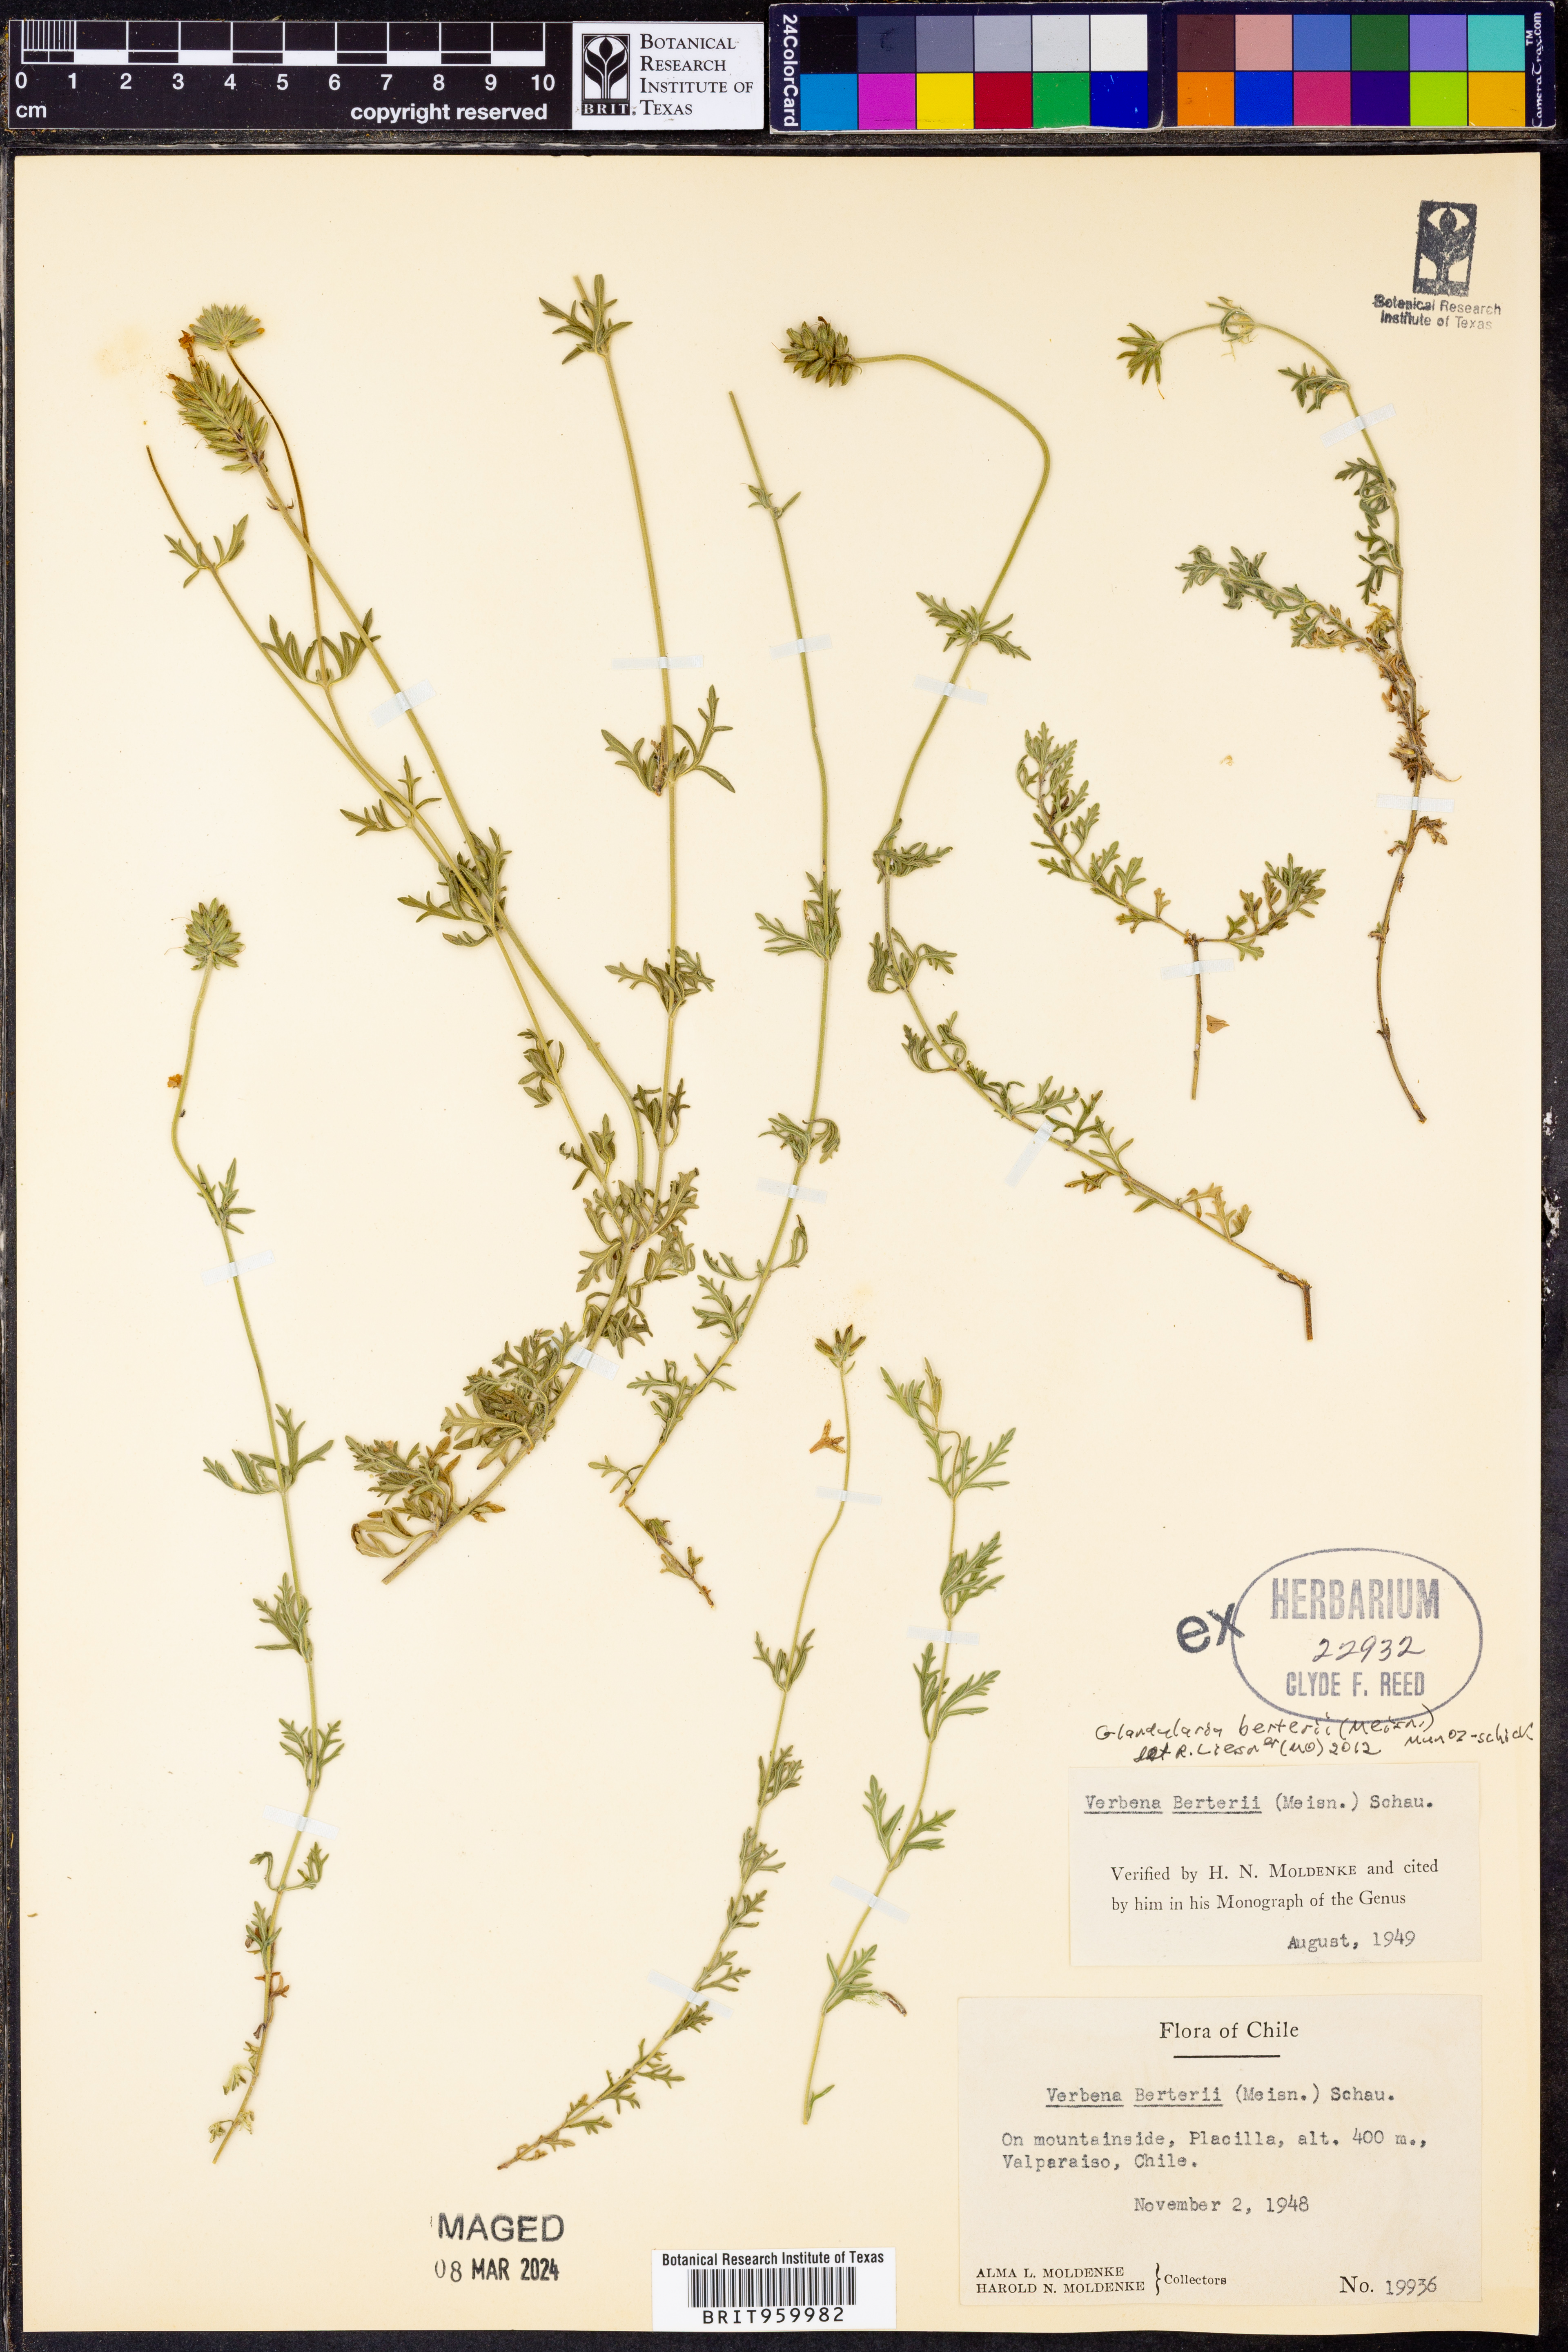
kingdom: Plantae
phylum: Tracheophyta
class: Magnoliopsida
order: Lamiales
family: Verbenaceae
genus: Verbena
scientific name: Verbena
